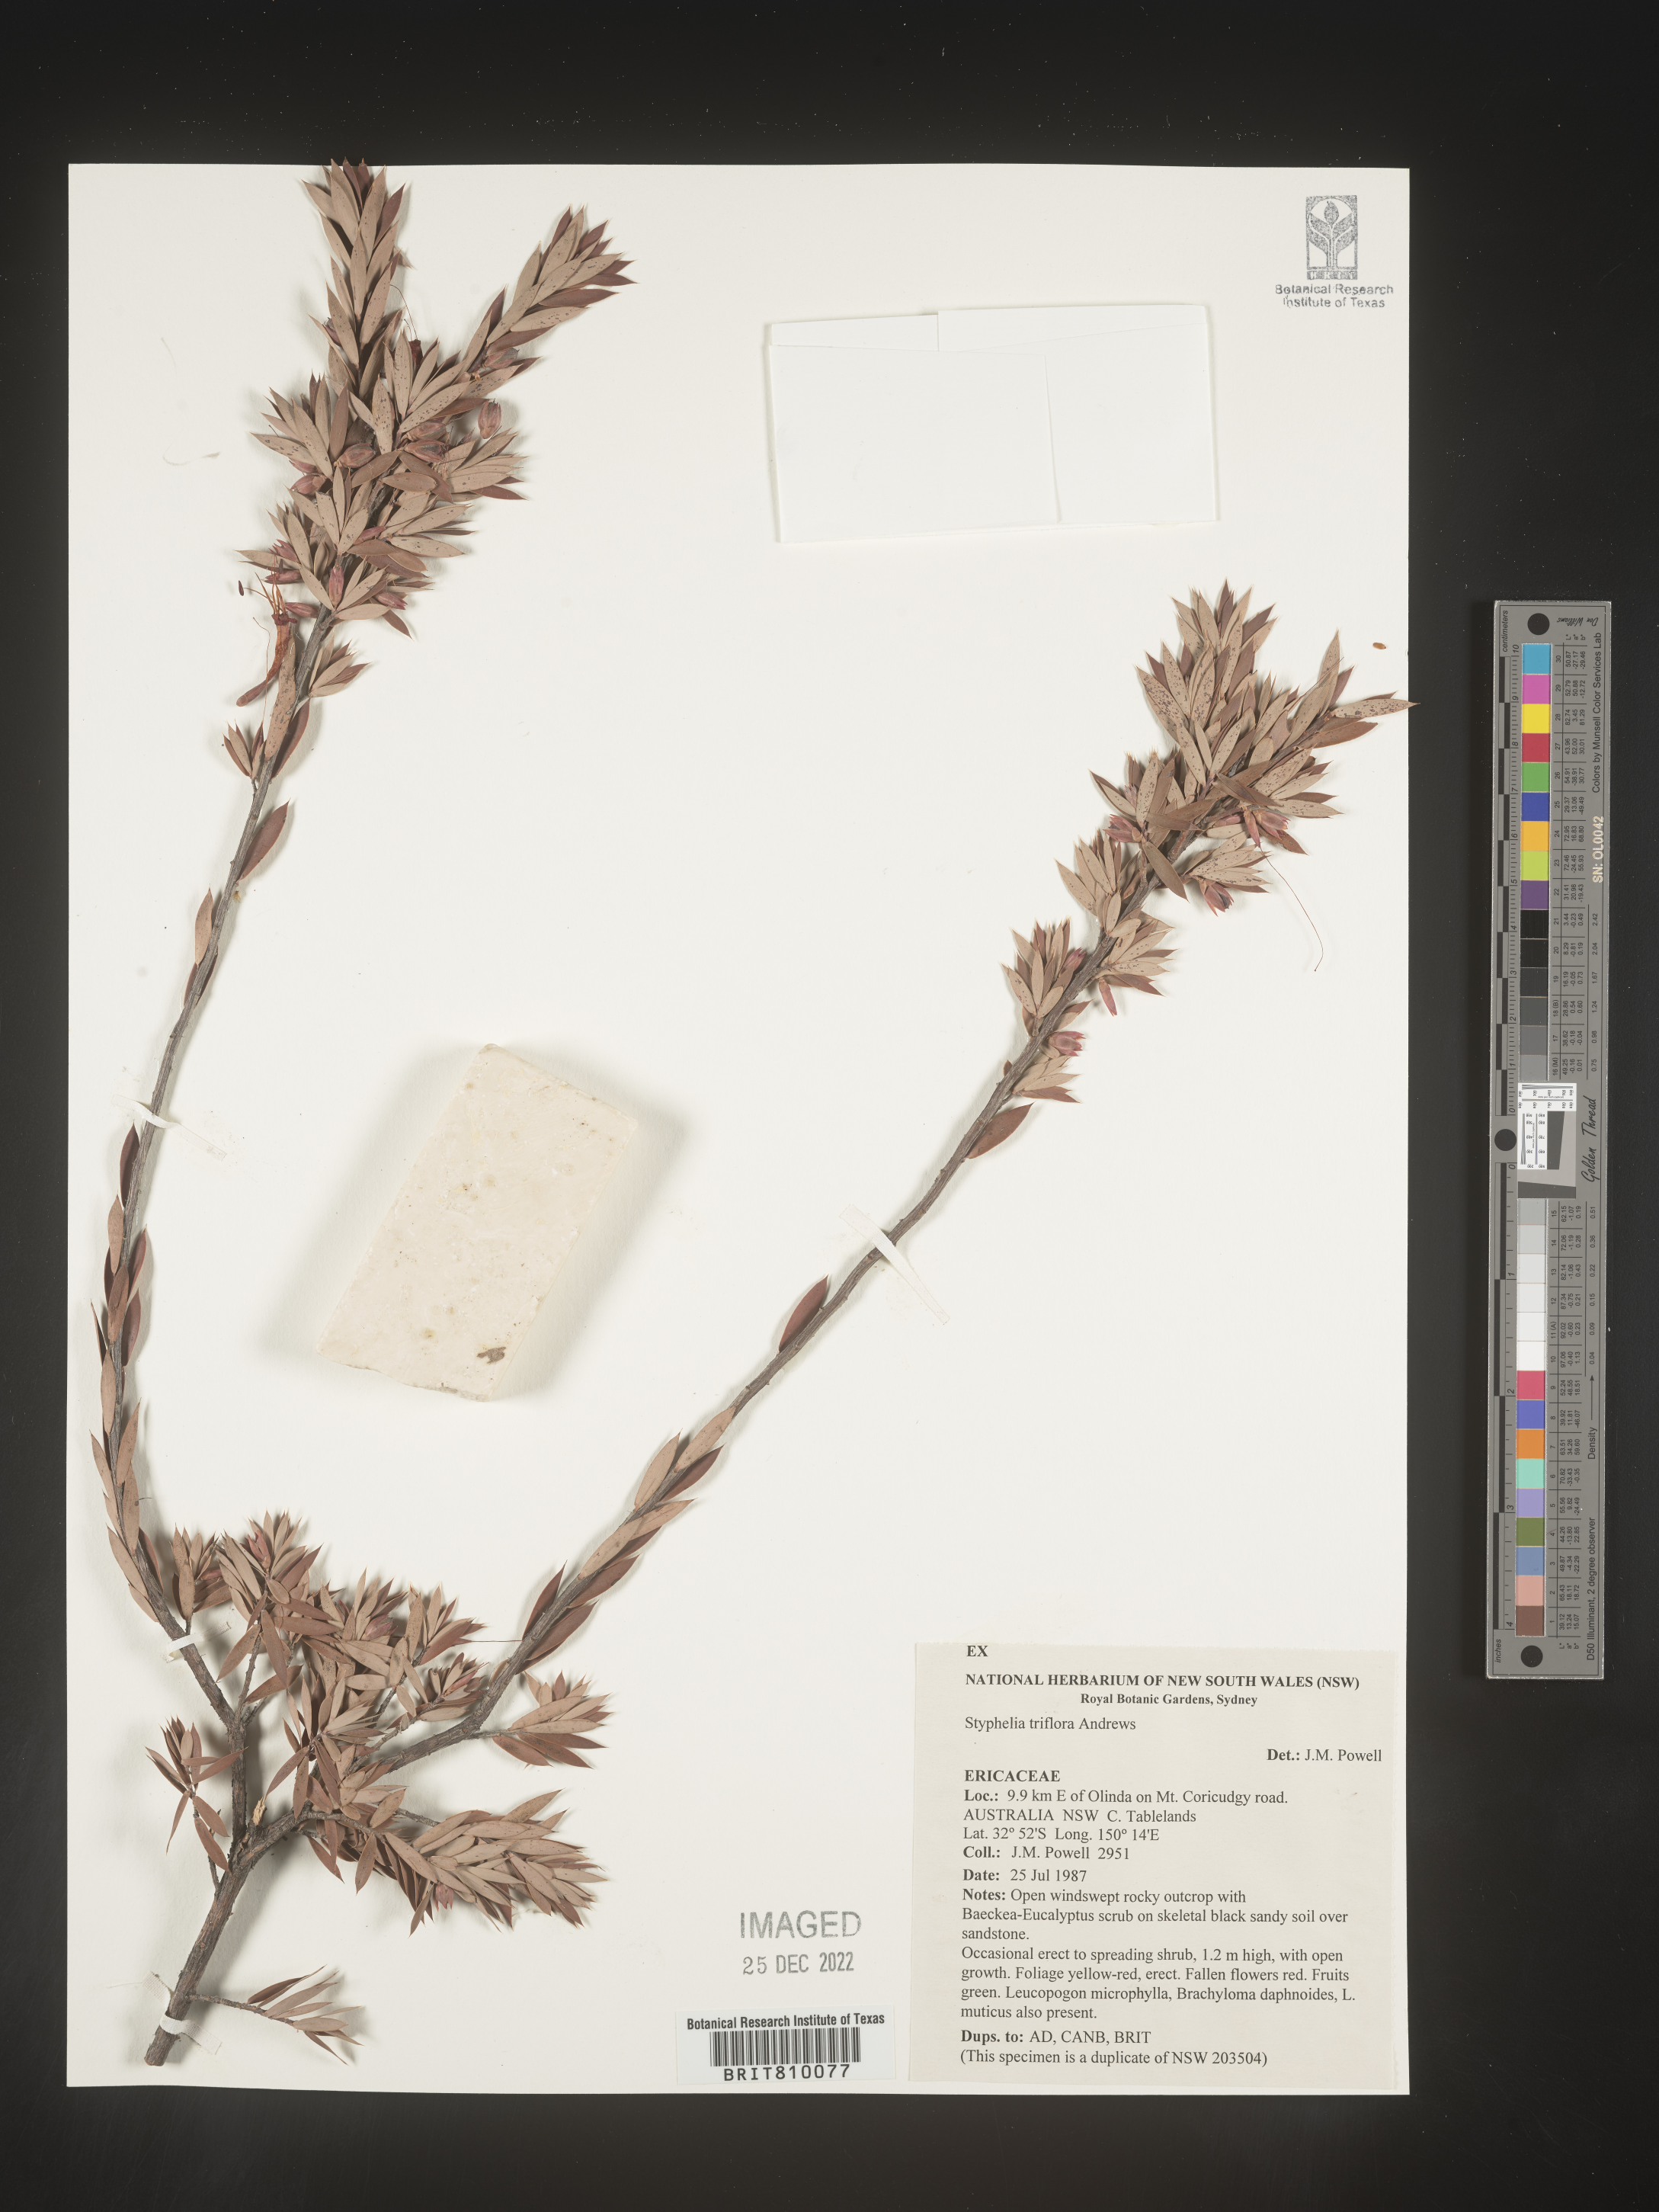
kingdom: Plantae
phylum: Tracheophyta
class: Magnoliopsida
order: Ericales
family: Ericaceae
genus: Styphelia
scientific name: Styphelia
